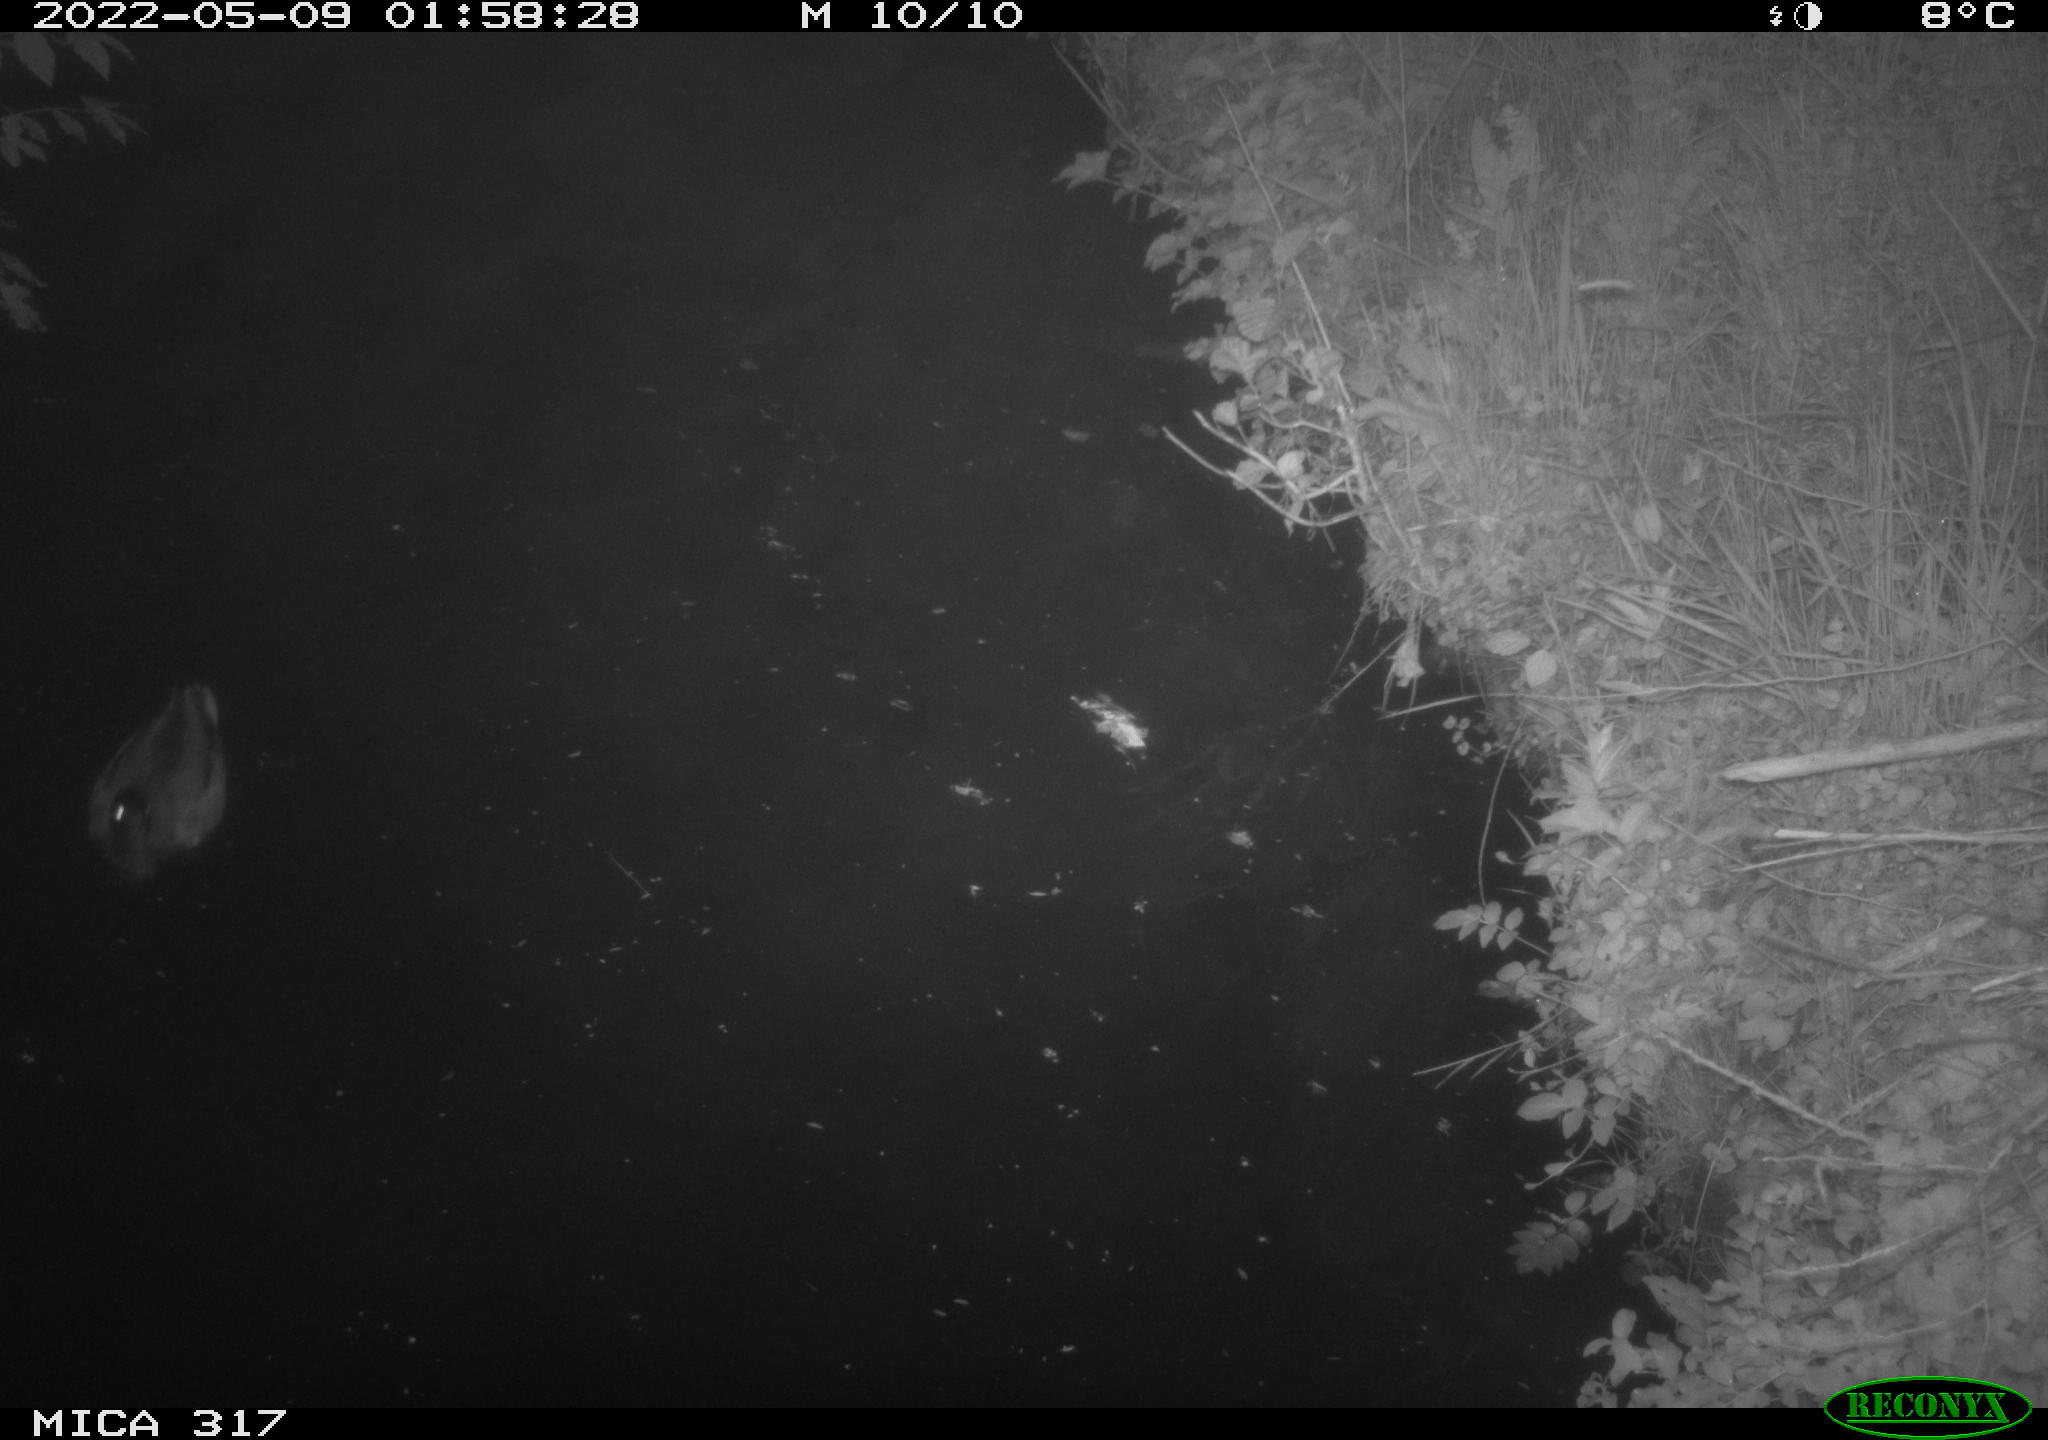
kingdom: Animalia
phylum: Chordata
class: Aves
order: Anseriformes
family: Anatidae
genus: Anas
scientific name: Anas platyrhynchos
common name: Mallard
